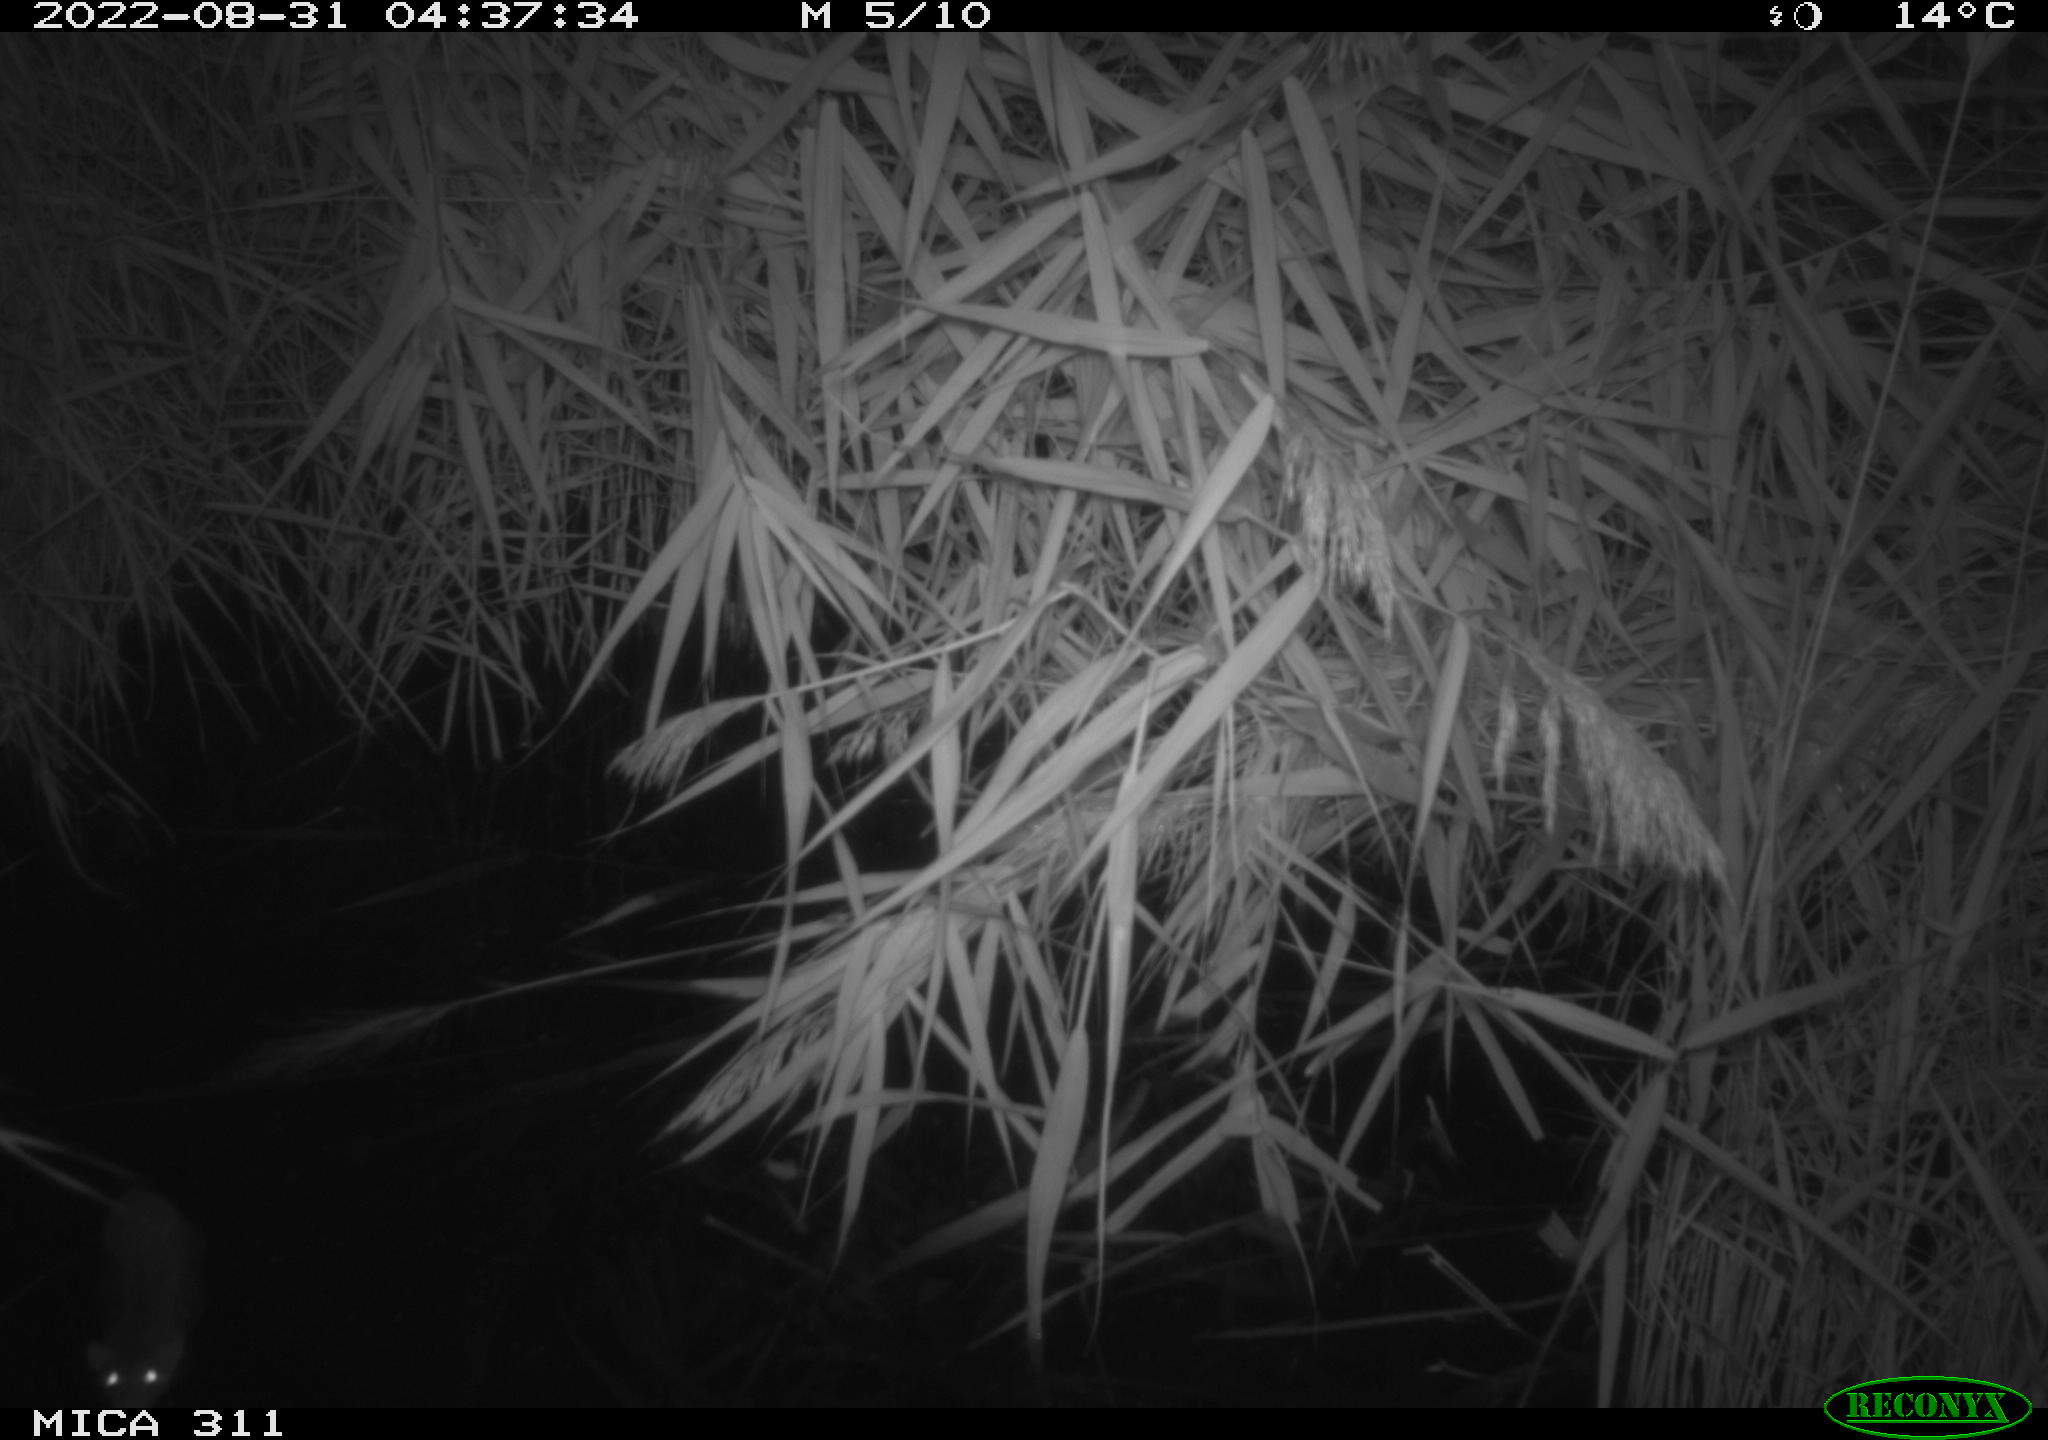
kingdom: Animalia
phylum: Chordata
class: Mammalia
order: Rodentia
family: Muridae
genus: Rattus
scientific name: Rattus norvegicus
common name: Brown rat
